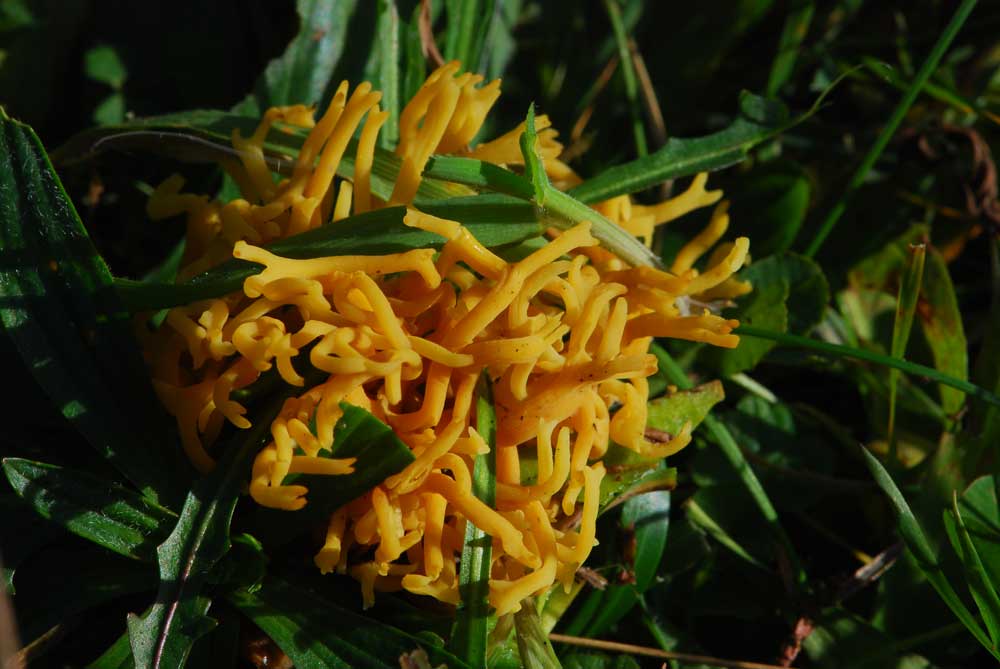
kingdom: Fungi
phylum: Basidiomycota
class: Agaricomycetes
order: Agaricales
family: Clavariaceae
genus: Clavulinopsis
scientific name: Clavulinopsis corniculata
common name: eng-køllesvamp
